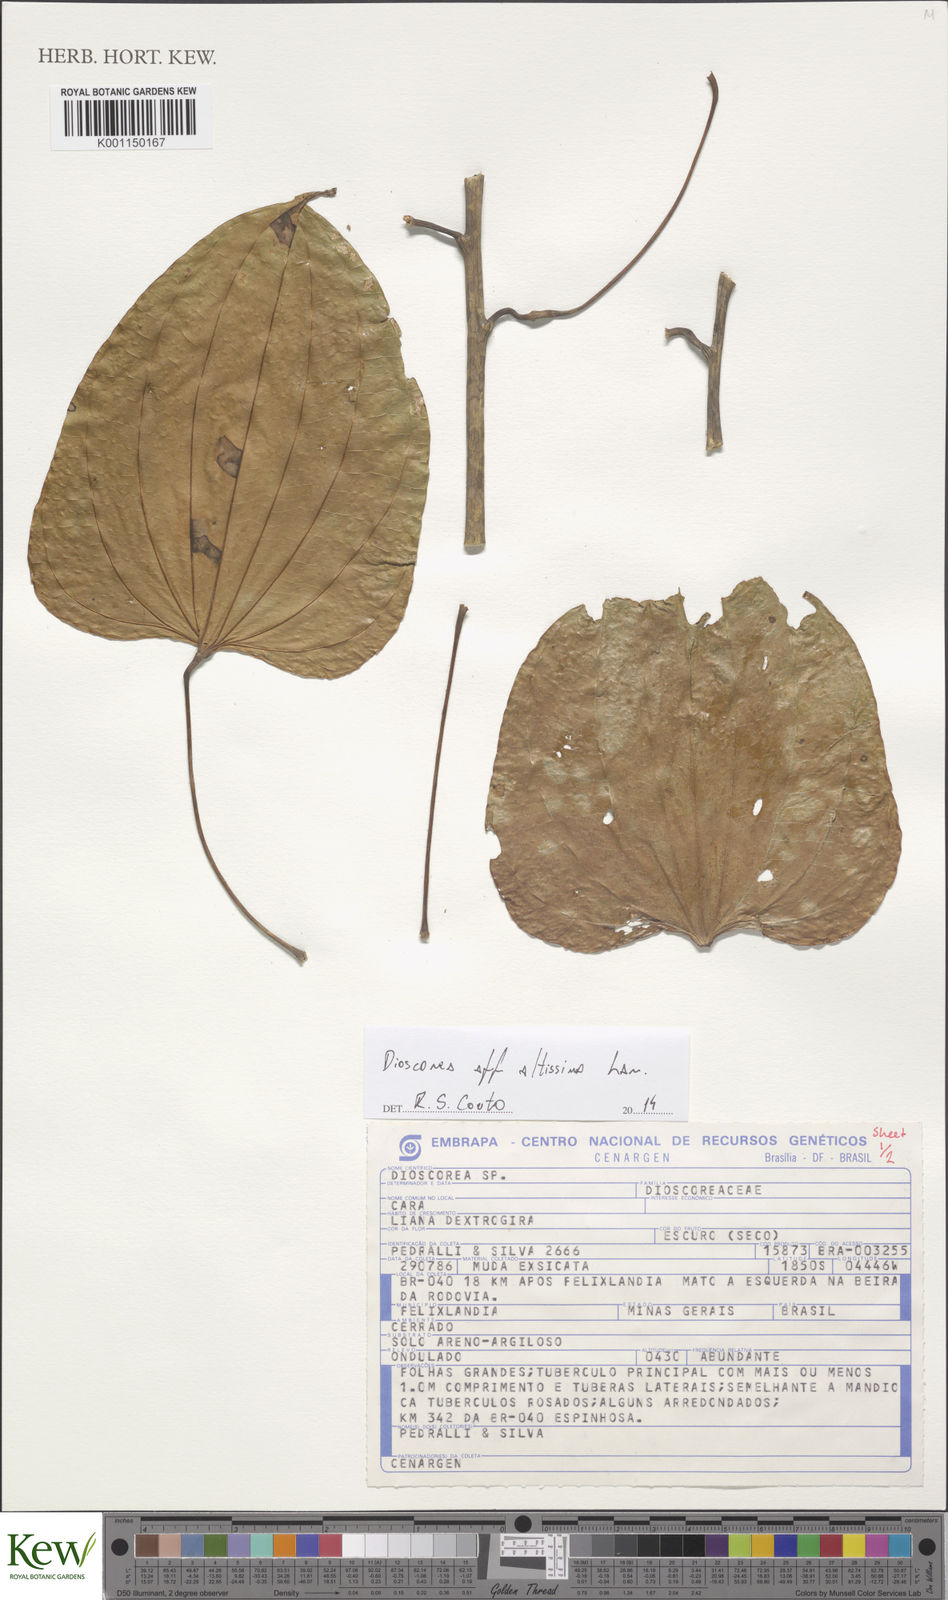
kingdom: Plantae
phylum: Tracheophyta
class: Liliopsida
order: Dioscoreales
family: Dioscoreaceae
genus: Dioscorea
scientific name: Dioscorea cayenensis
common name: Attoto yam
